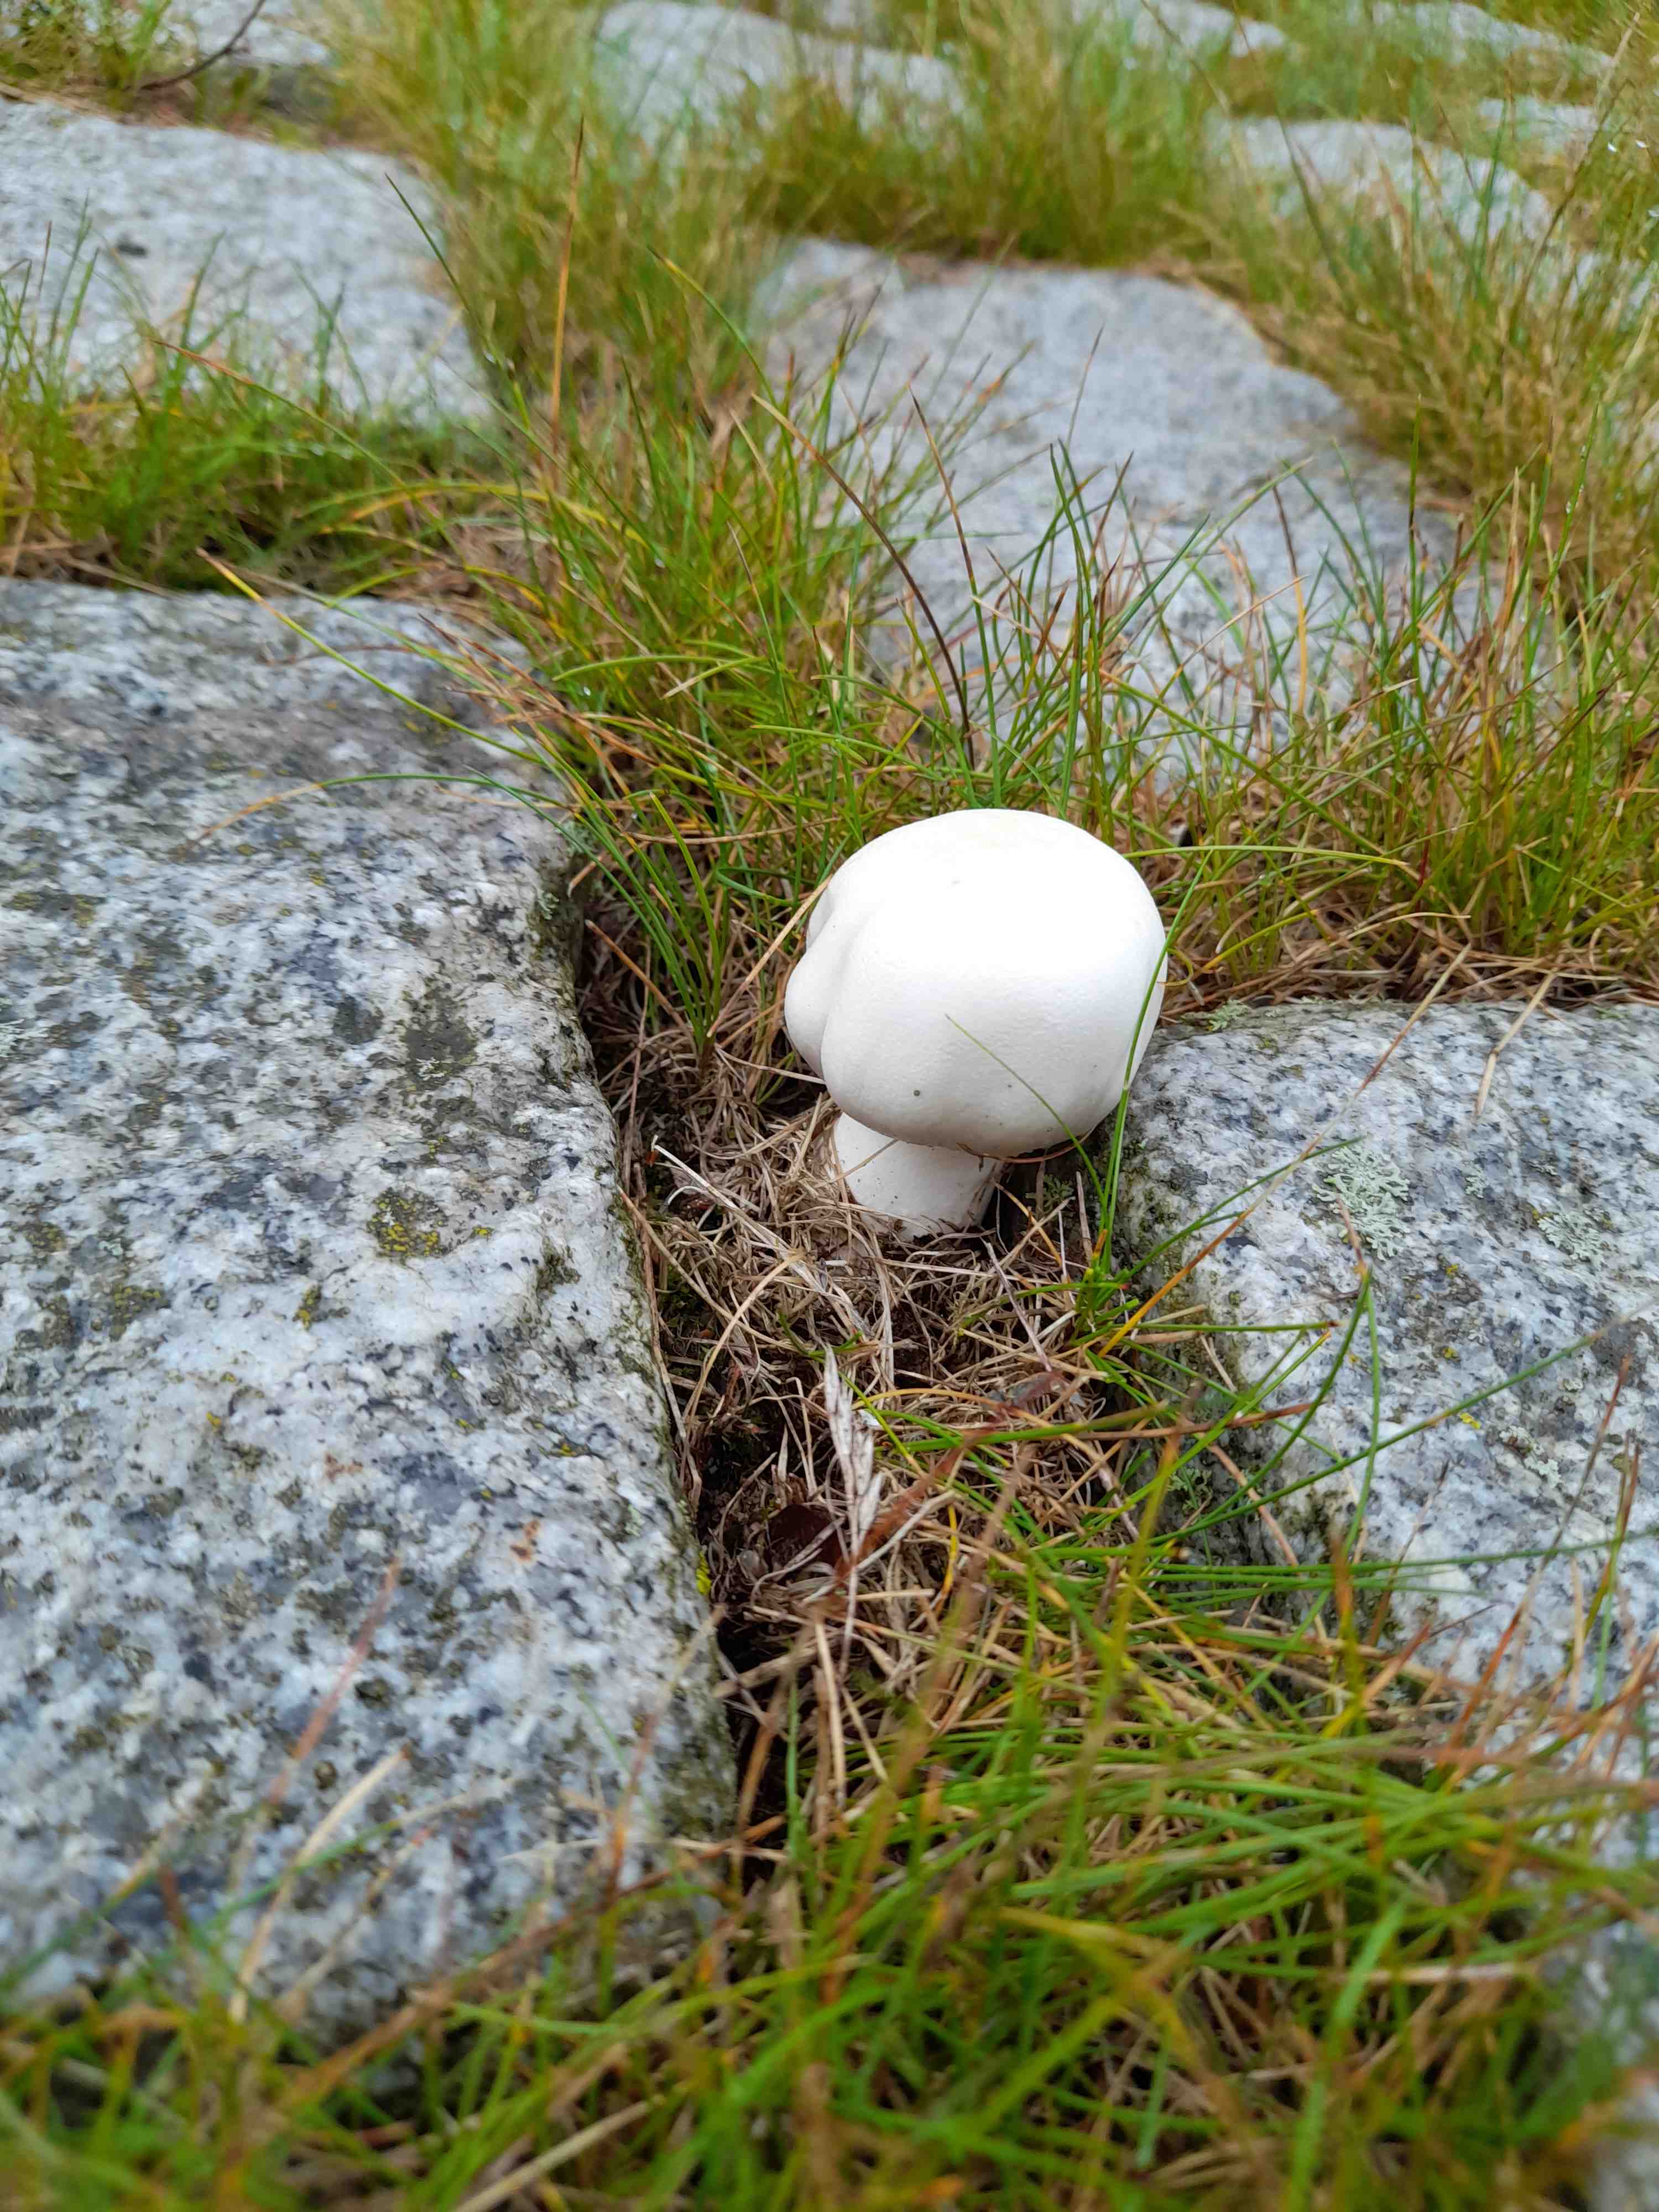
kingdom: Fungi
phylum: Basidiomycota
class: Agaricomycetes
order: Agaricales
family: Agaricaceae
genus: Leucoagaricus
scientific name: Leucoagaricus leucothites
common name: rosabladet silkehat
